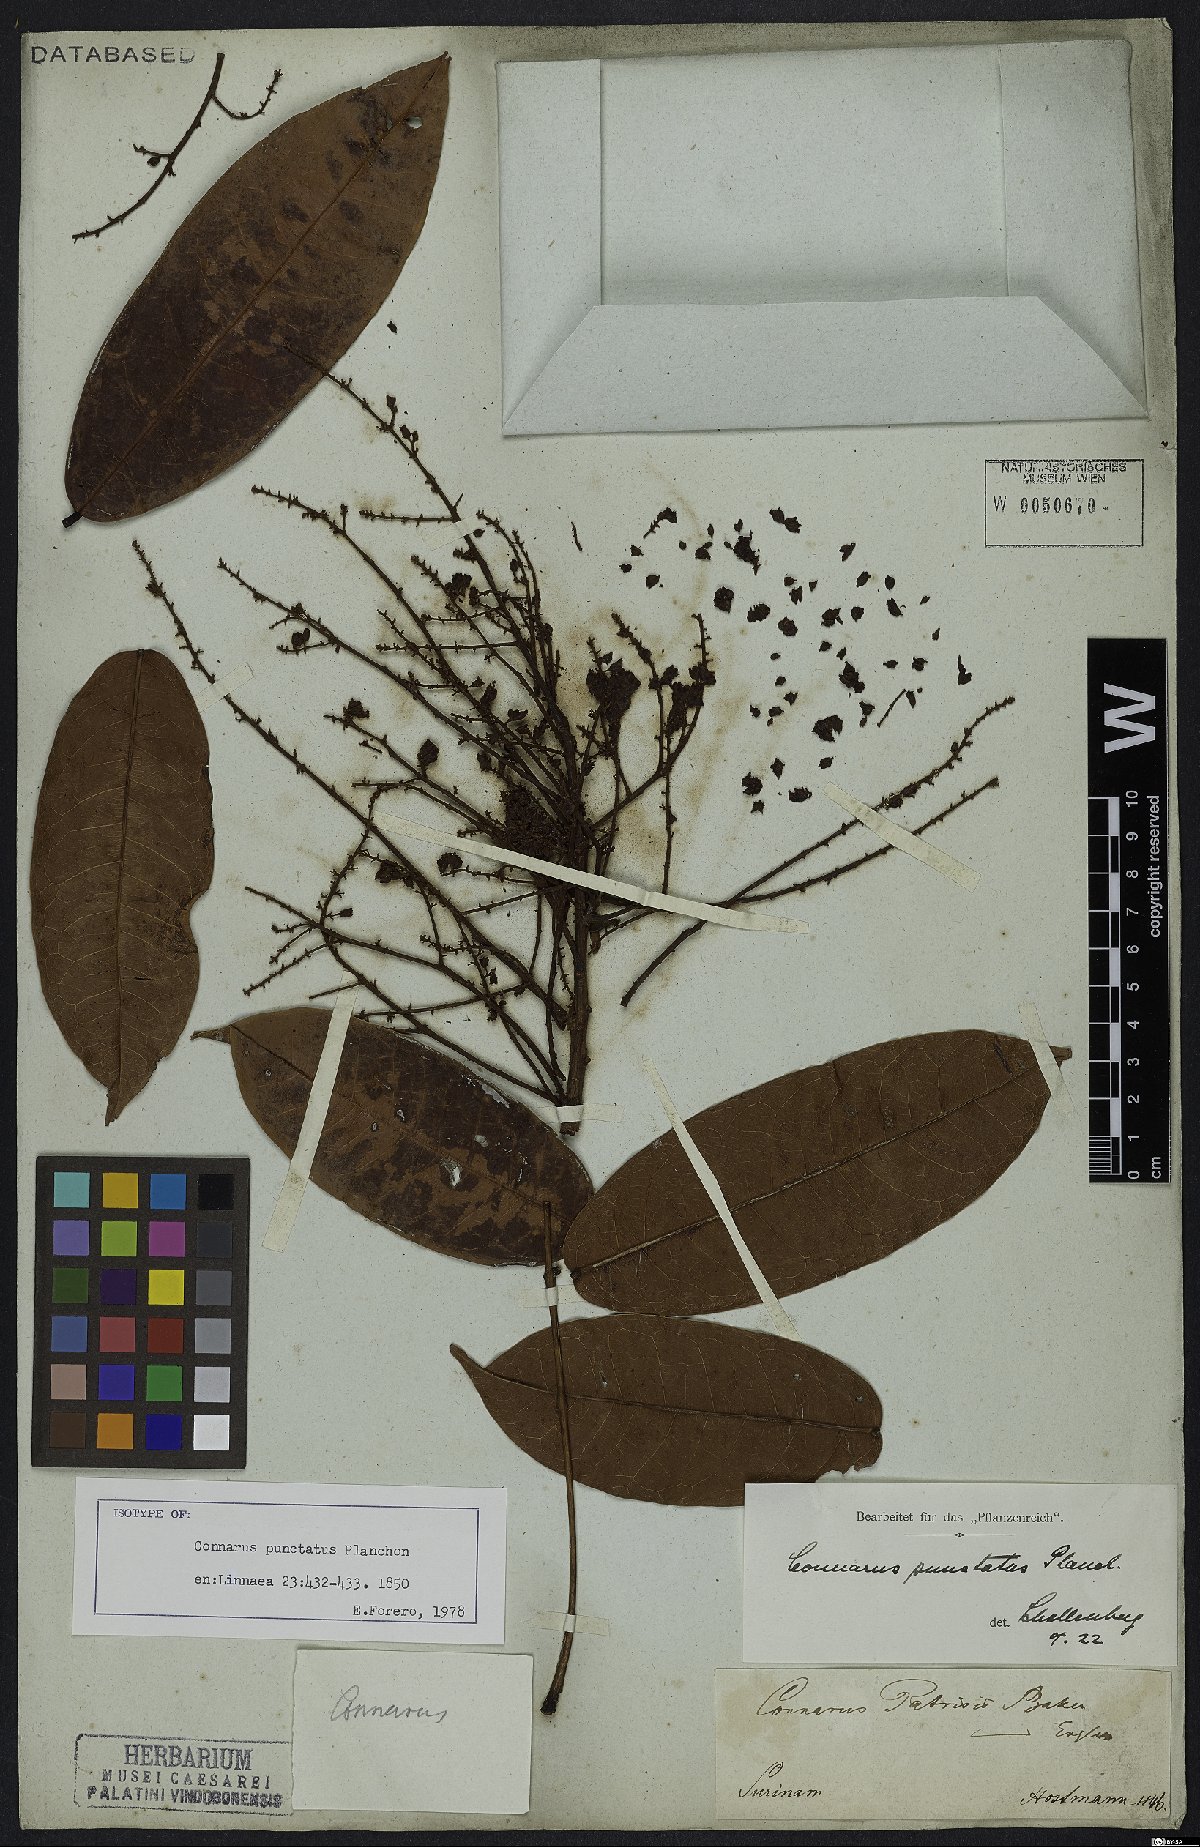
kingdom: Plantae
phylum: Tracheophyta
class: Magnoliopsida
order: Oxalidales
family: Connaraceae
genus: Connarus
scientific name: Connarus punctatus
